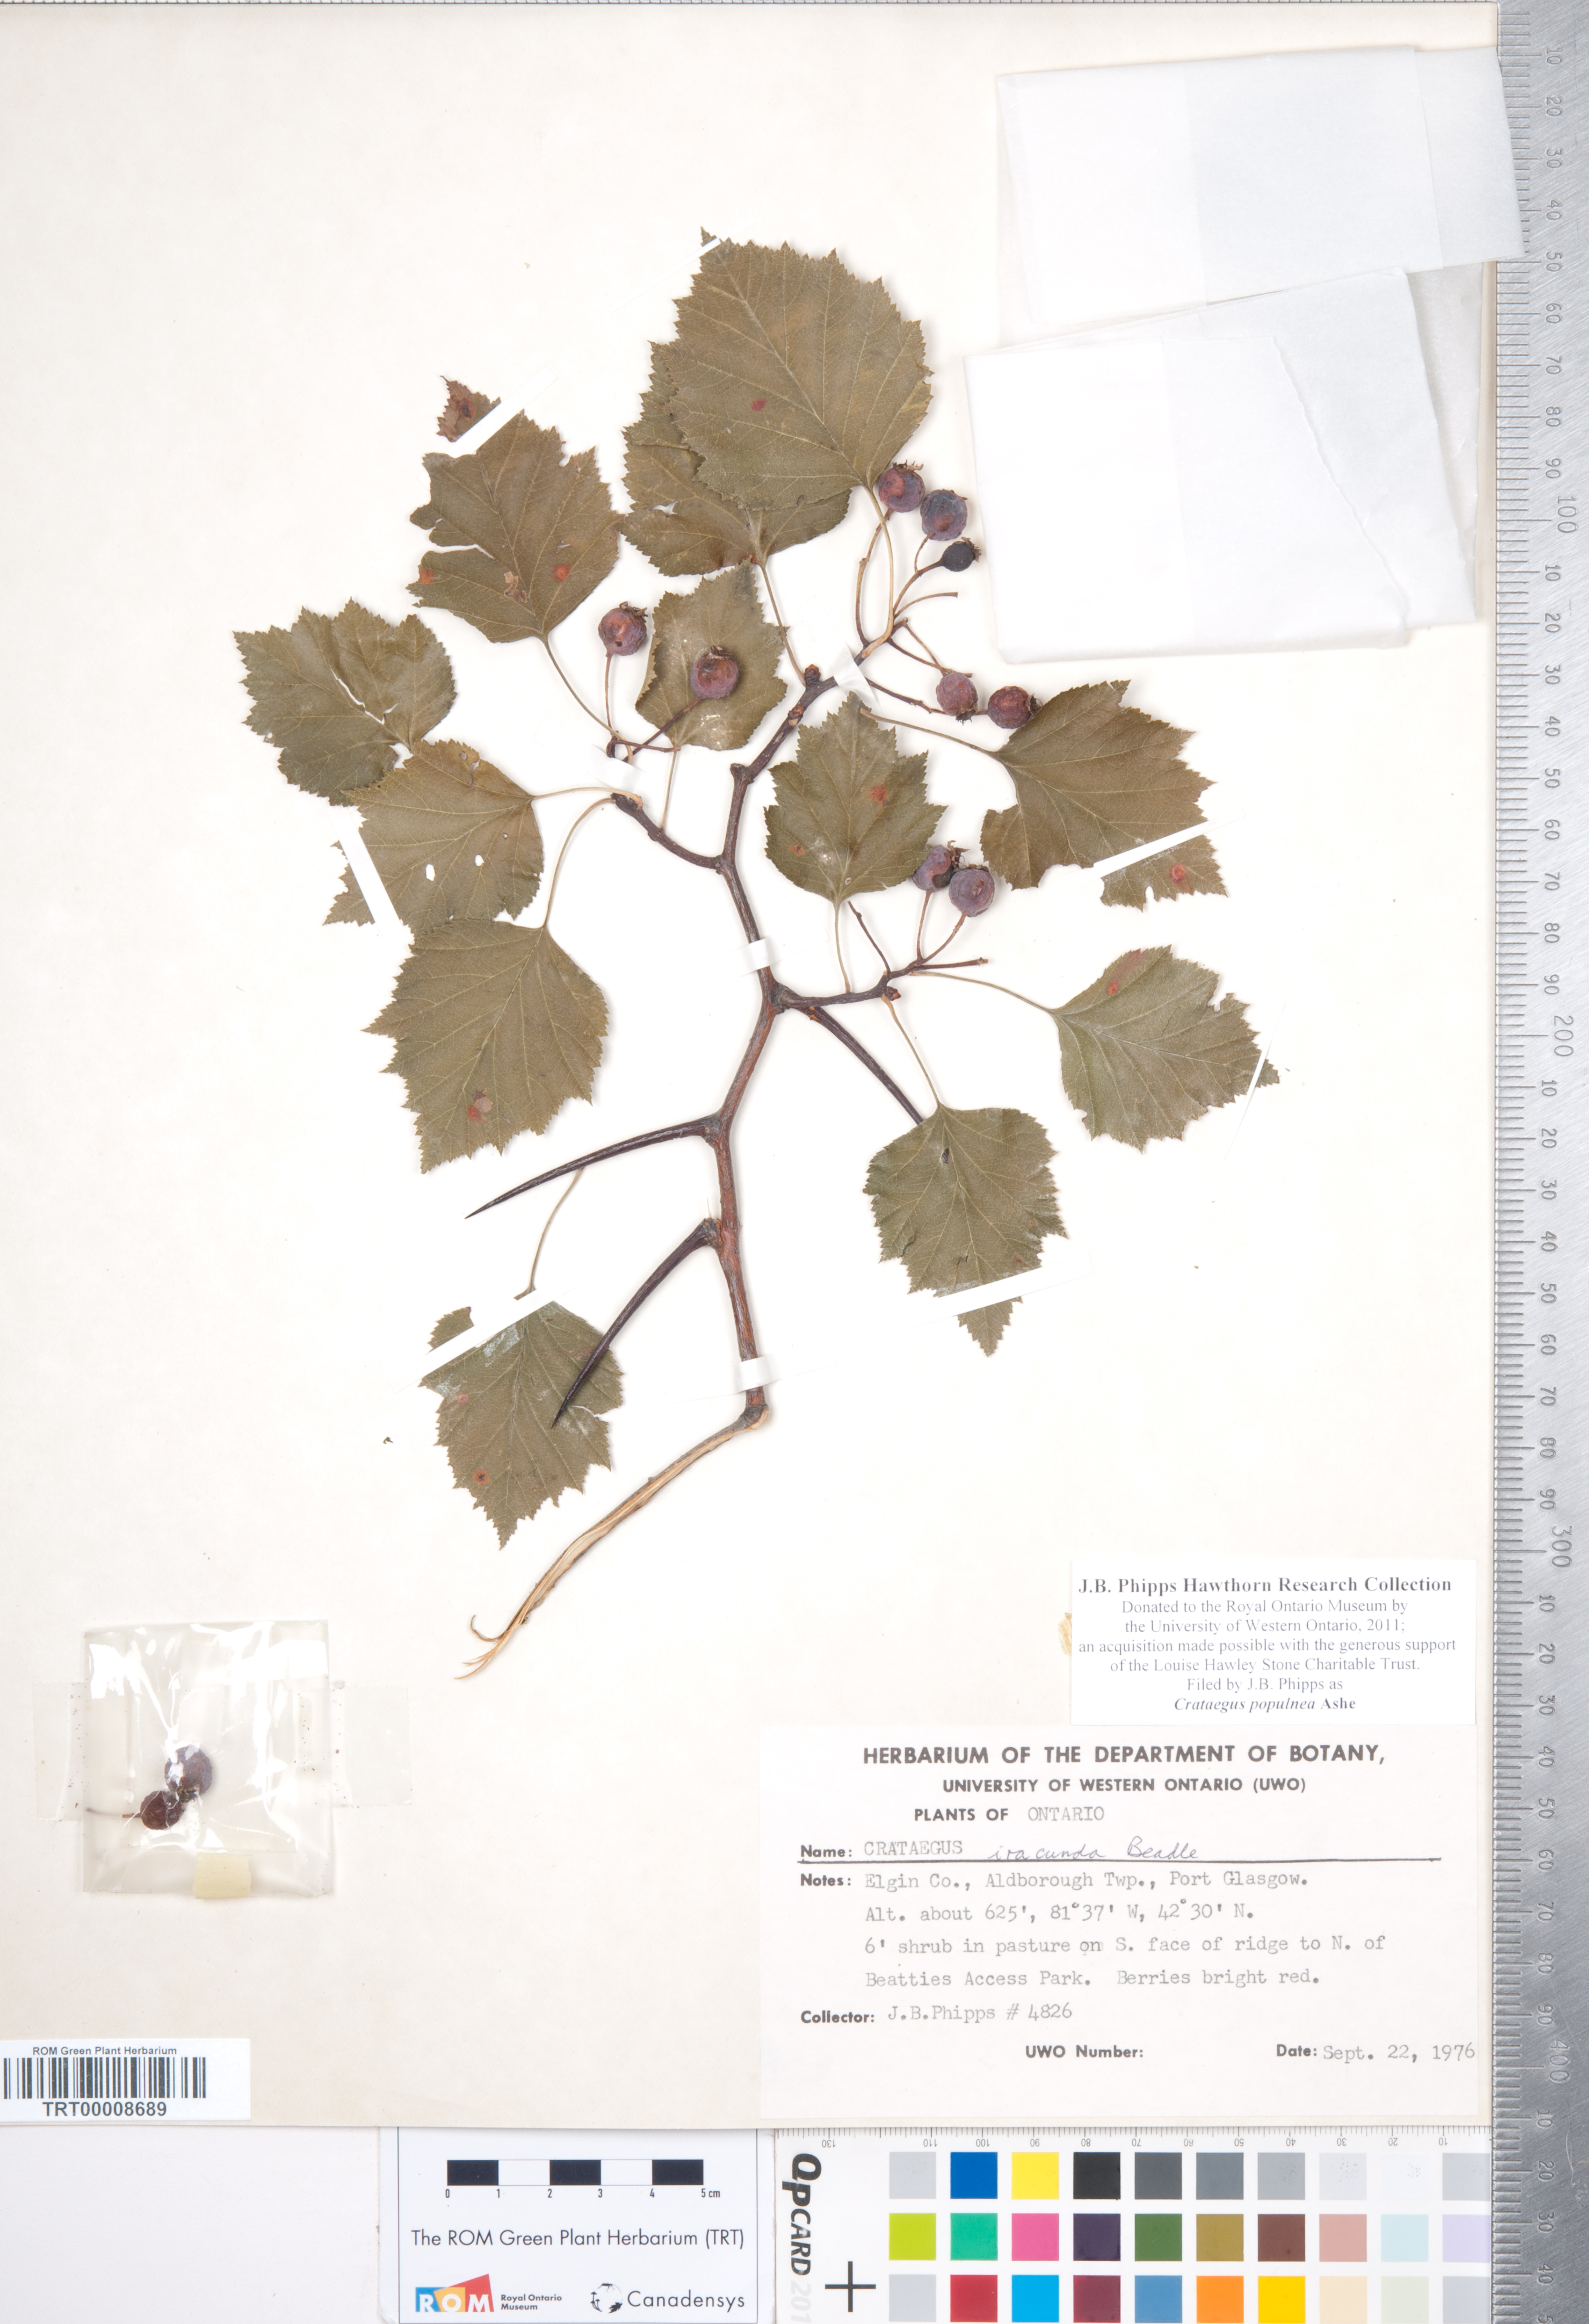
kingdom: Plantae
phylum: Tracheophyta
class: Magnoliopsida
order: Rosales
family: Rosaceae
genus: Crataegus
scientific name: Crataegus populnea
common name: Adorned hawthorn
